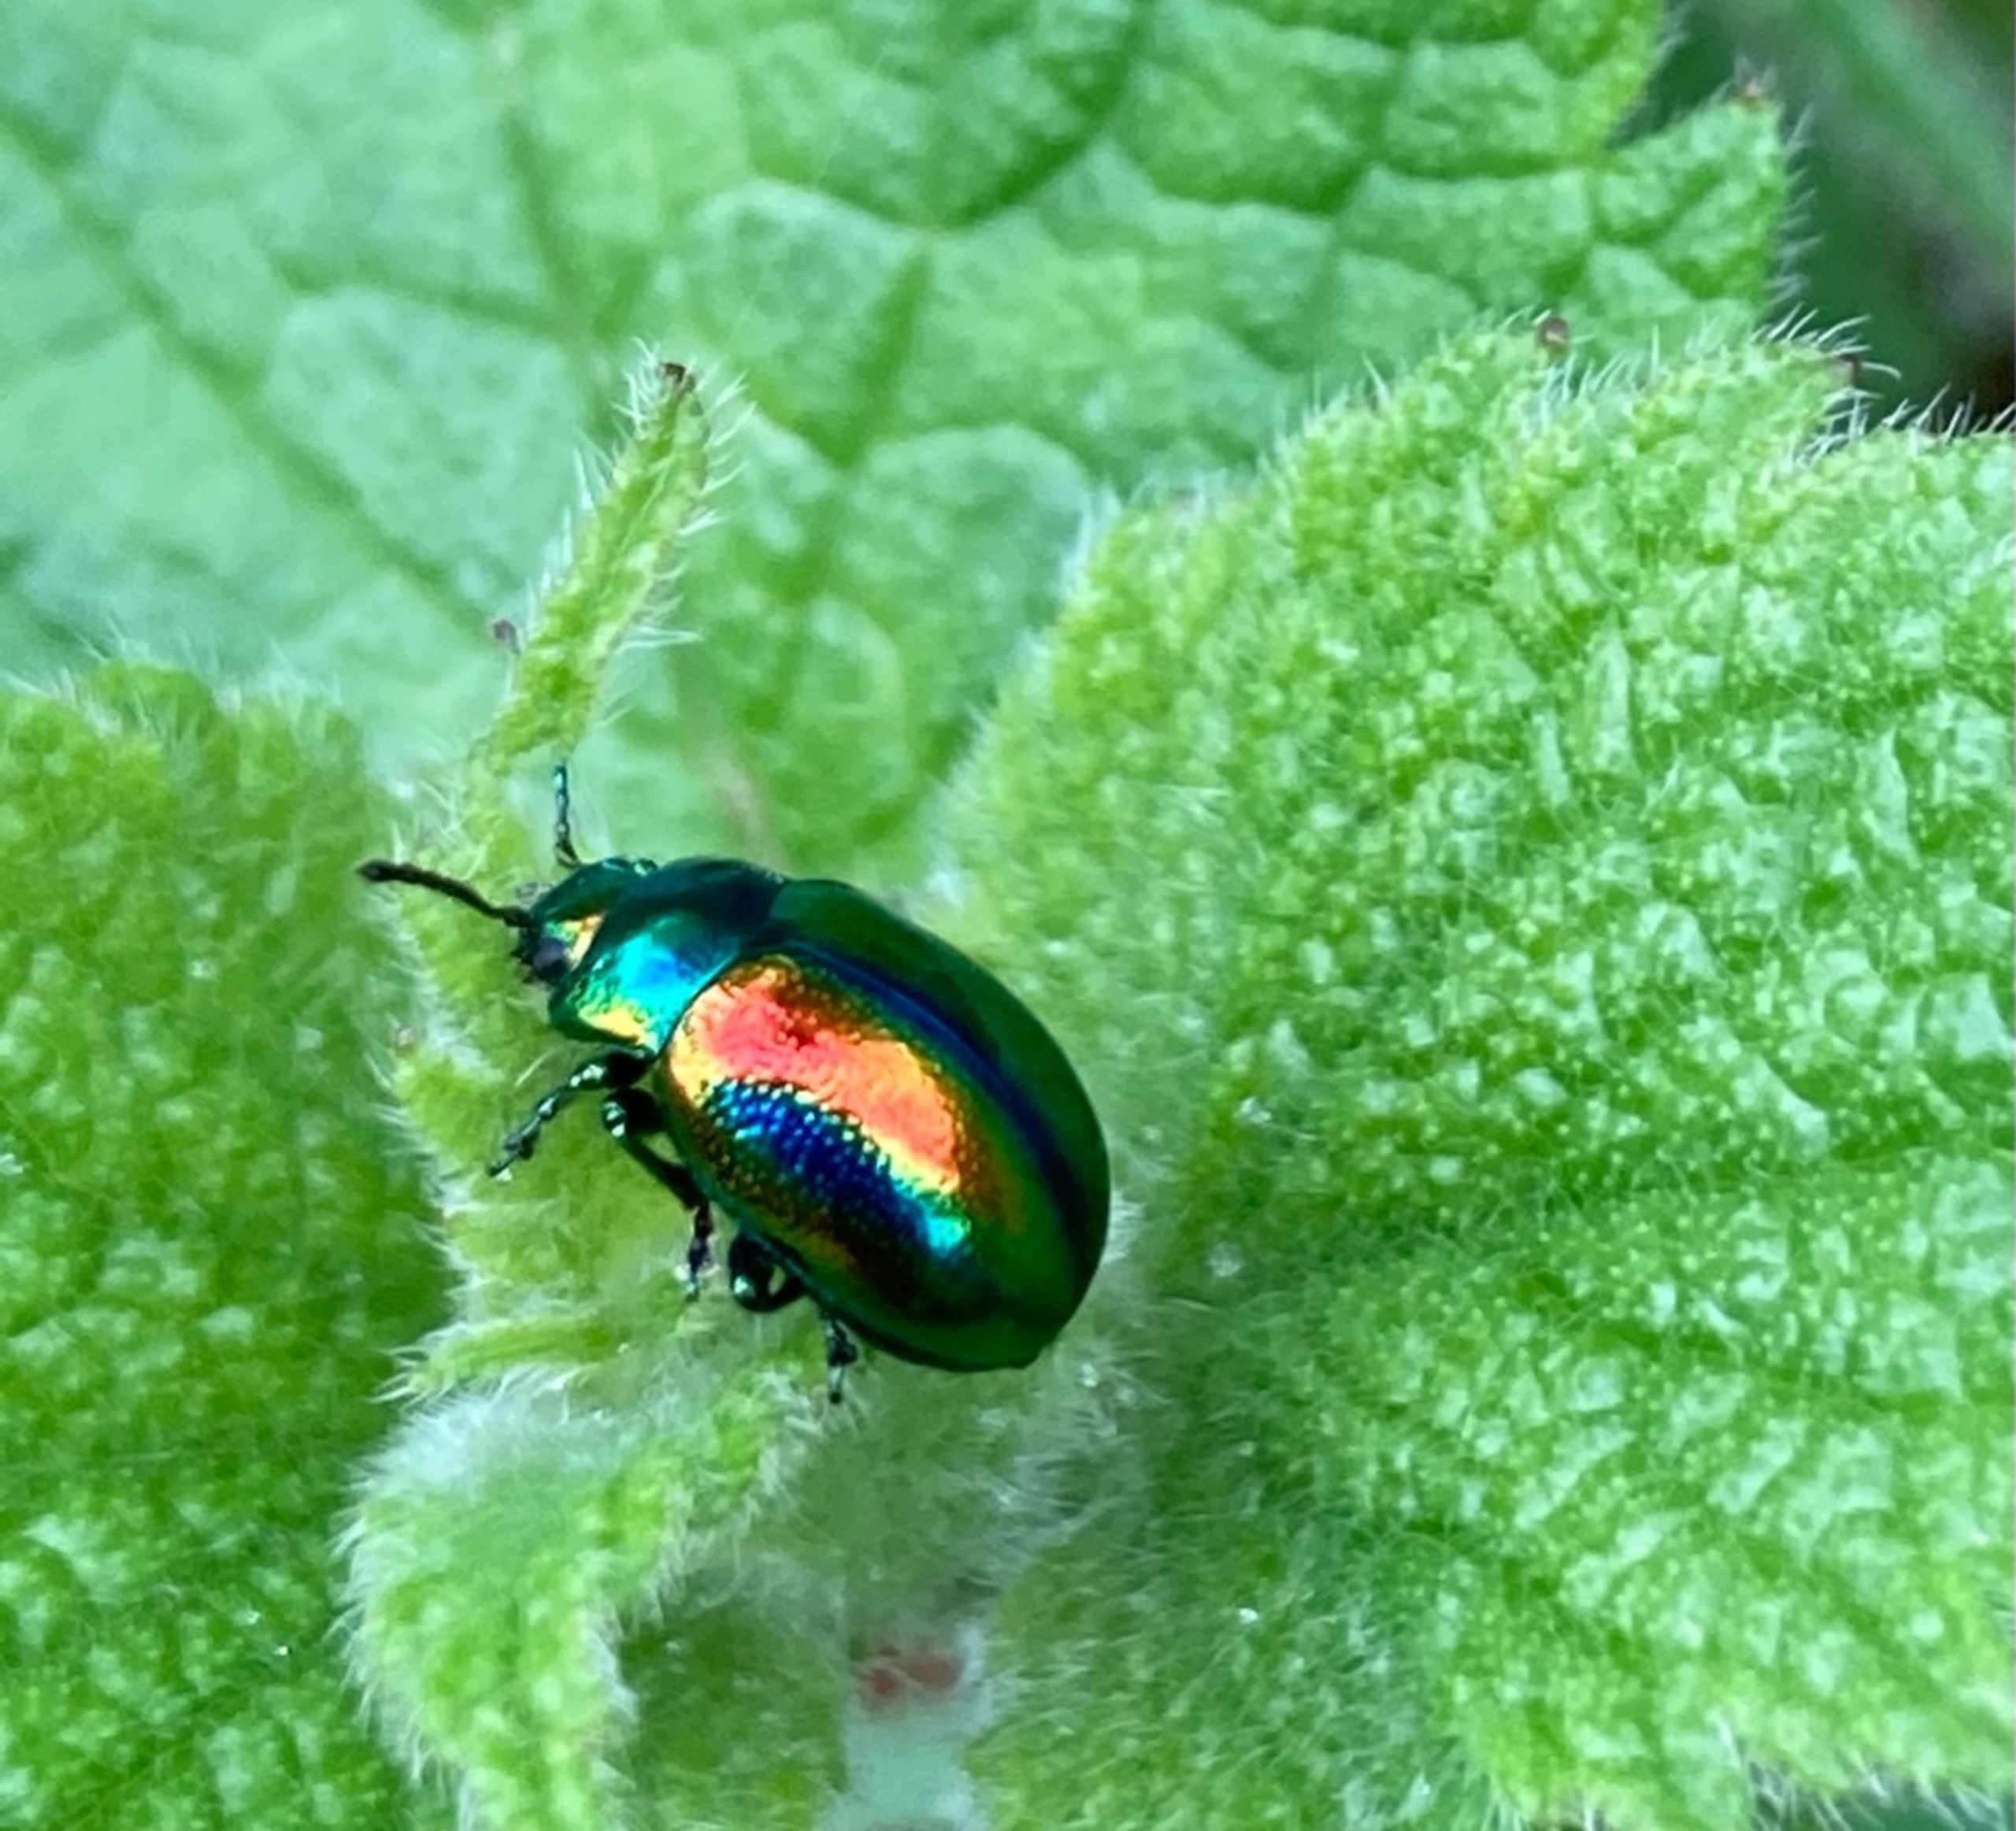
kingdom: Animalia
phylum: Arthropoda
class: Insecta
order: Coleoptera
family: Chrysomelidae
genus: Chrysolina
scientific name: Chrysolina fastuosa
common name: Tvetandbladbille
